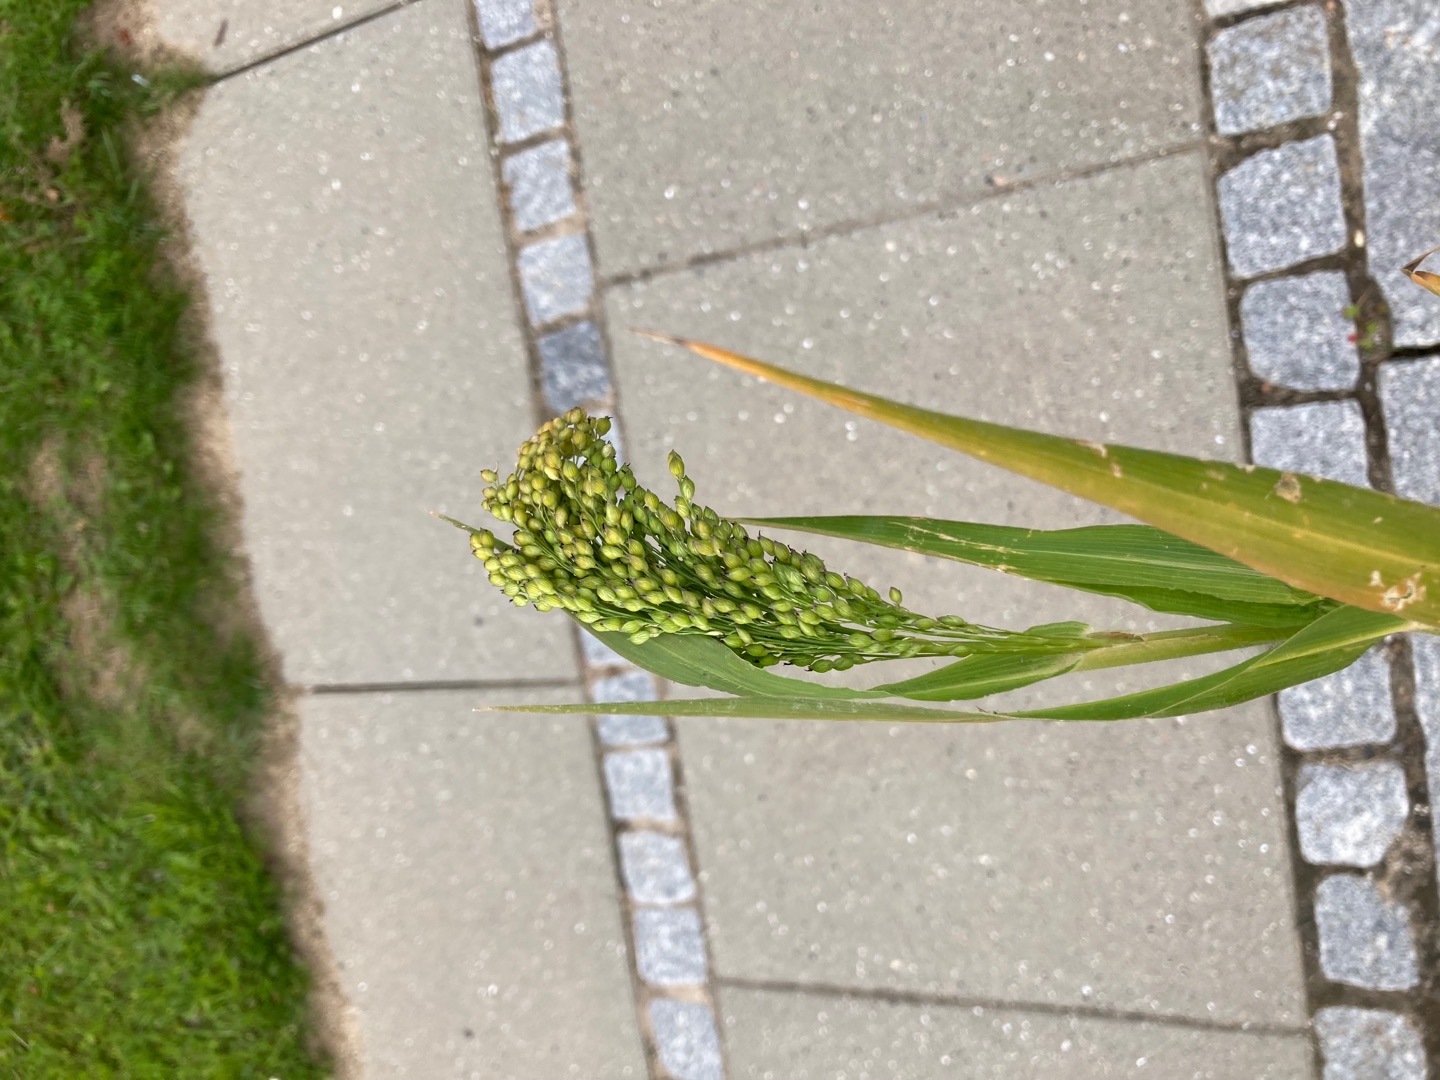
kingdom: Plantae
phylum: Tracheophyta
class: Liliopsida
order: Poales
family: Poaceae
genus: Panicum
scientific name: Panicum miliaceum
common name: Almindelig hirse
